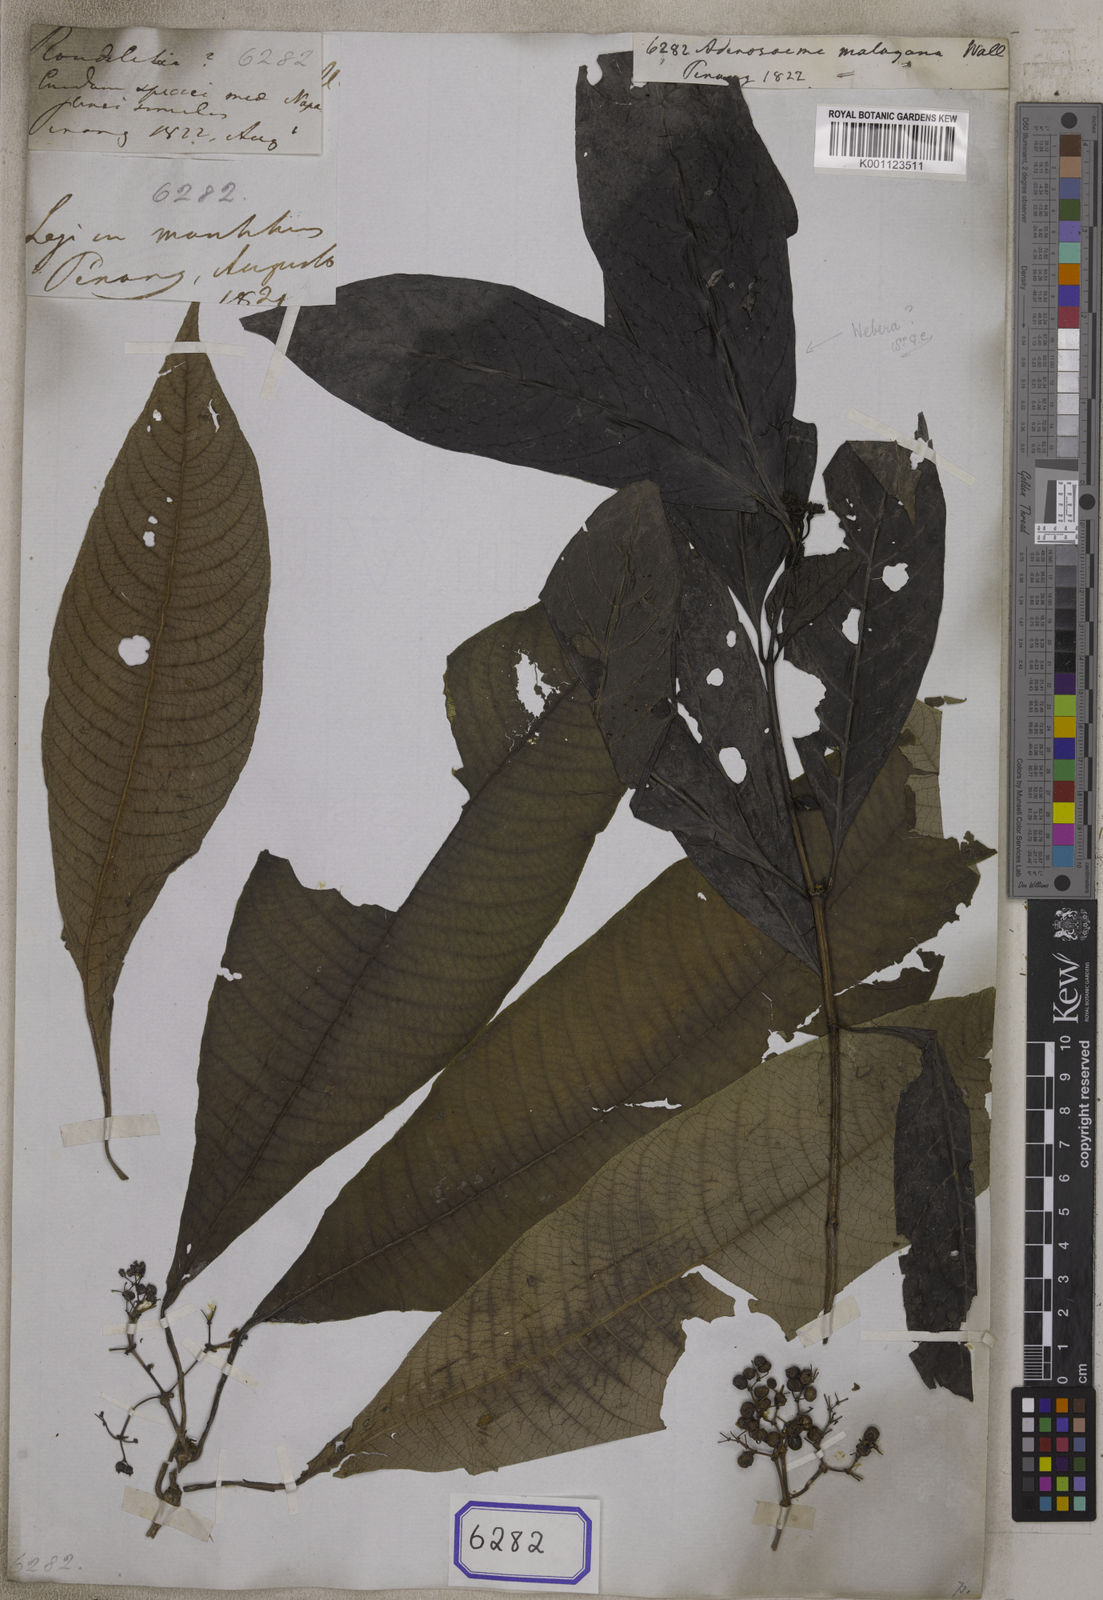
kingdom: Plantae
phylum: Tracheophyta
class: Magnoliopsida
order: Gentianales
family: Rubiaceae
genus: Adenosacme
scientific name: Adenosacme
